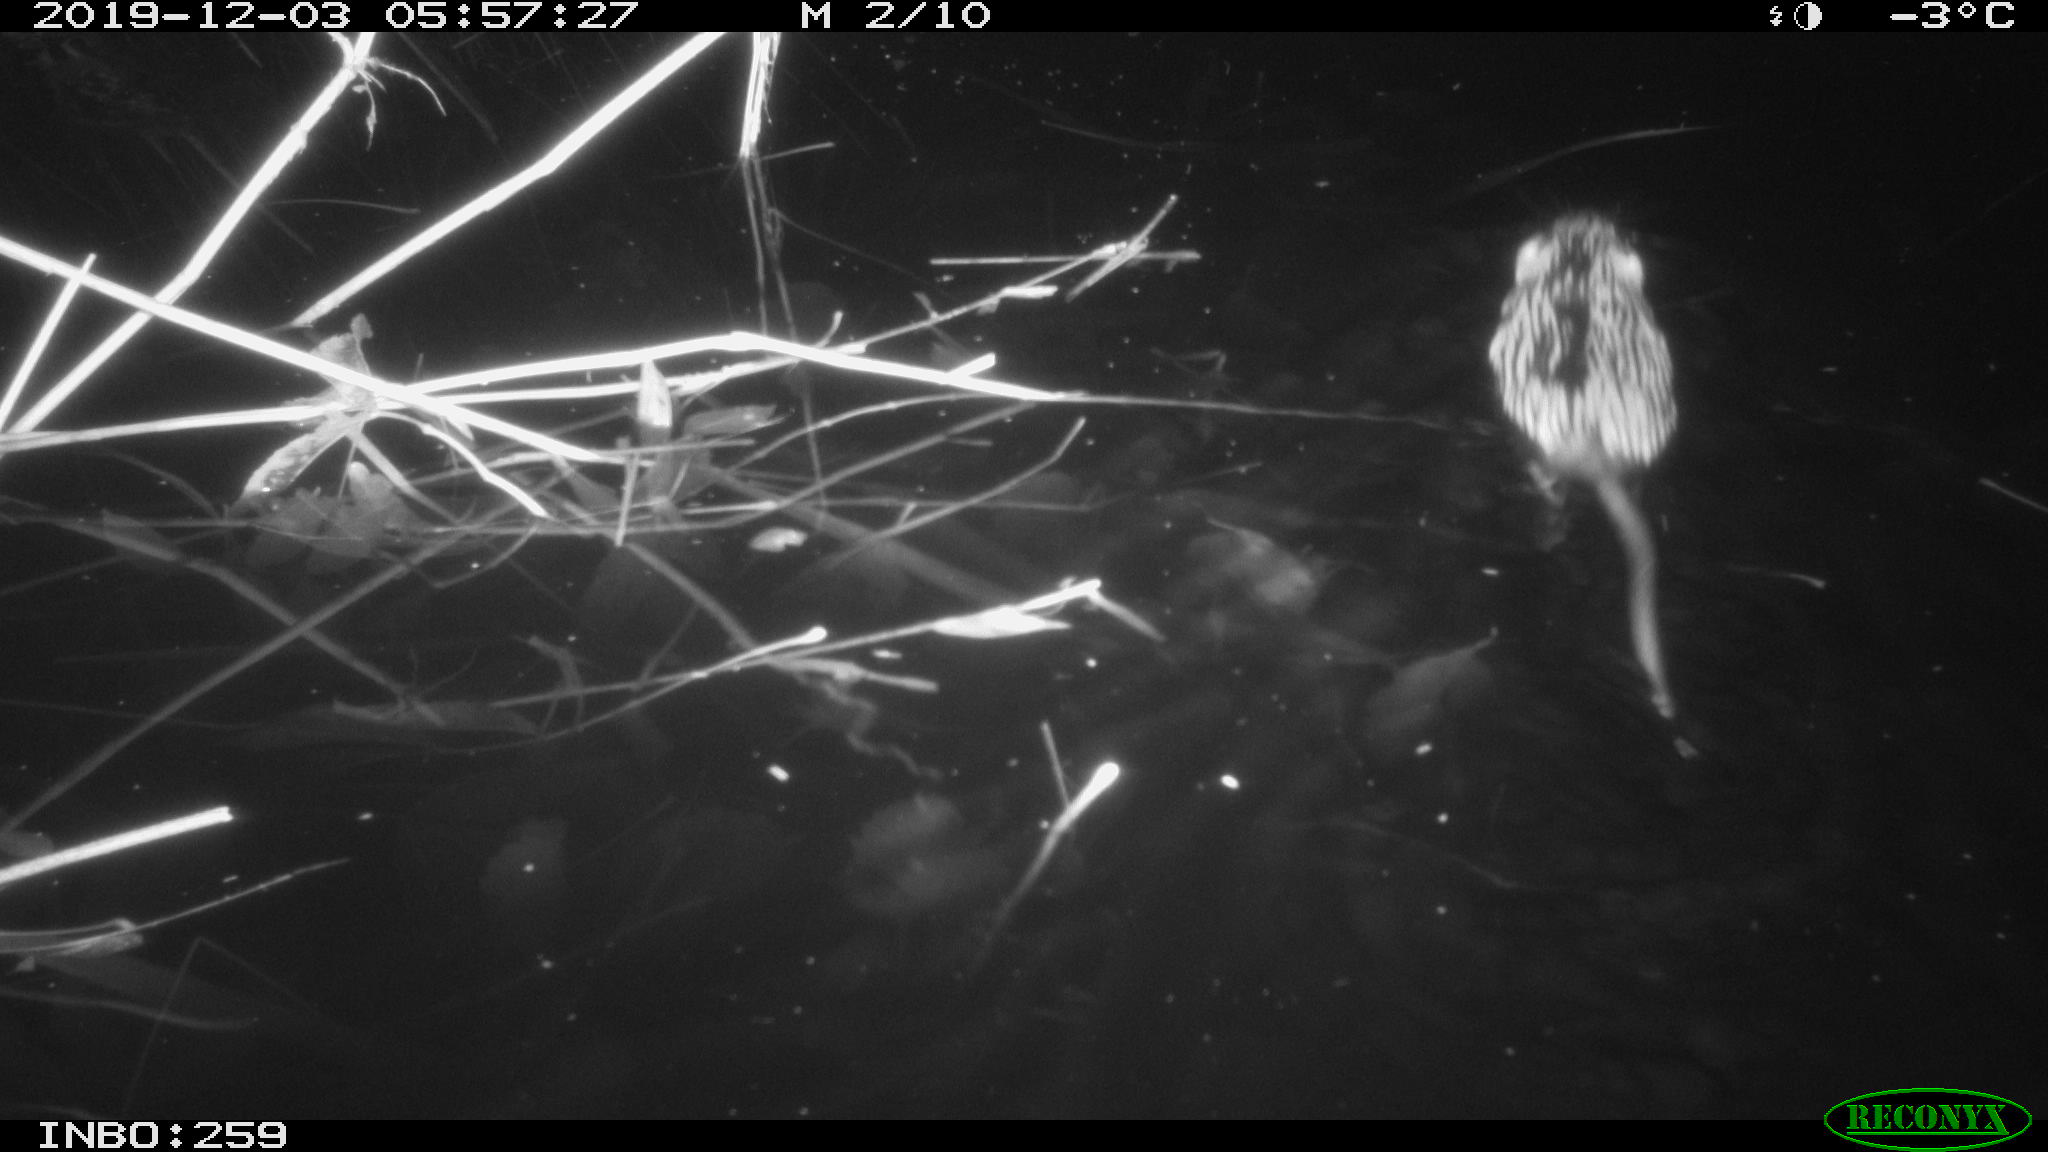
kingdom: Animalia
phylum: Chordata
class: Mammalia
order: Rodentia
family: Cricetidae
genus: Ondatra
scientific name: Ondatra zibethicus
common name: Muskrat
